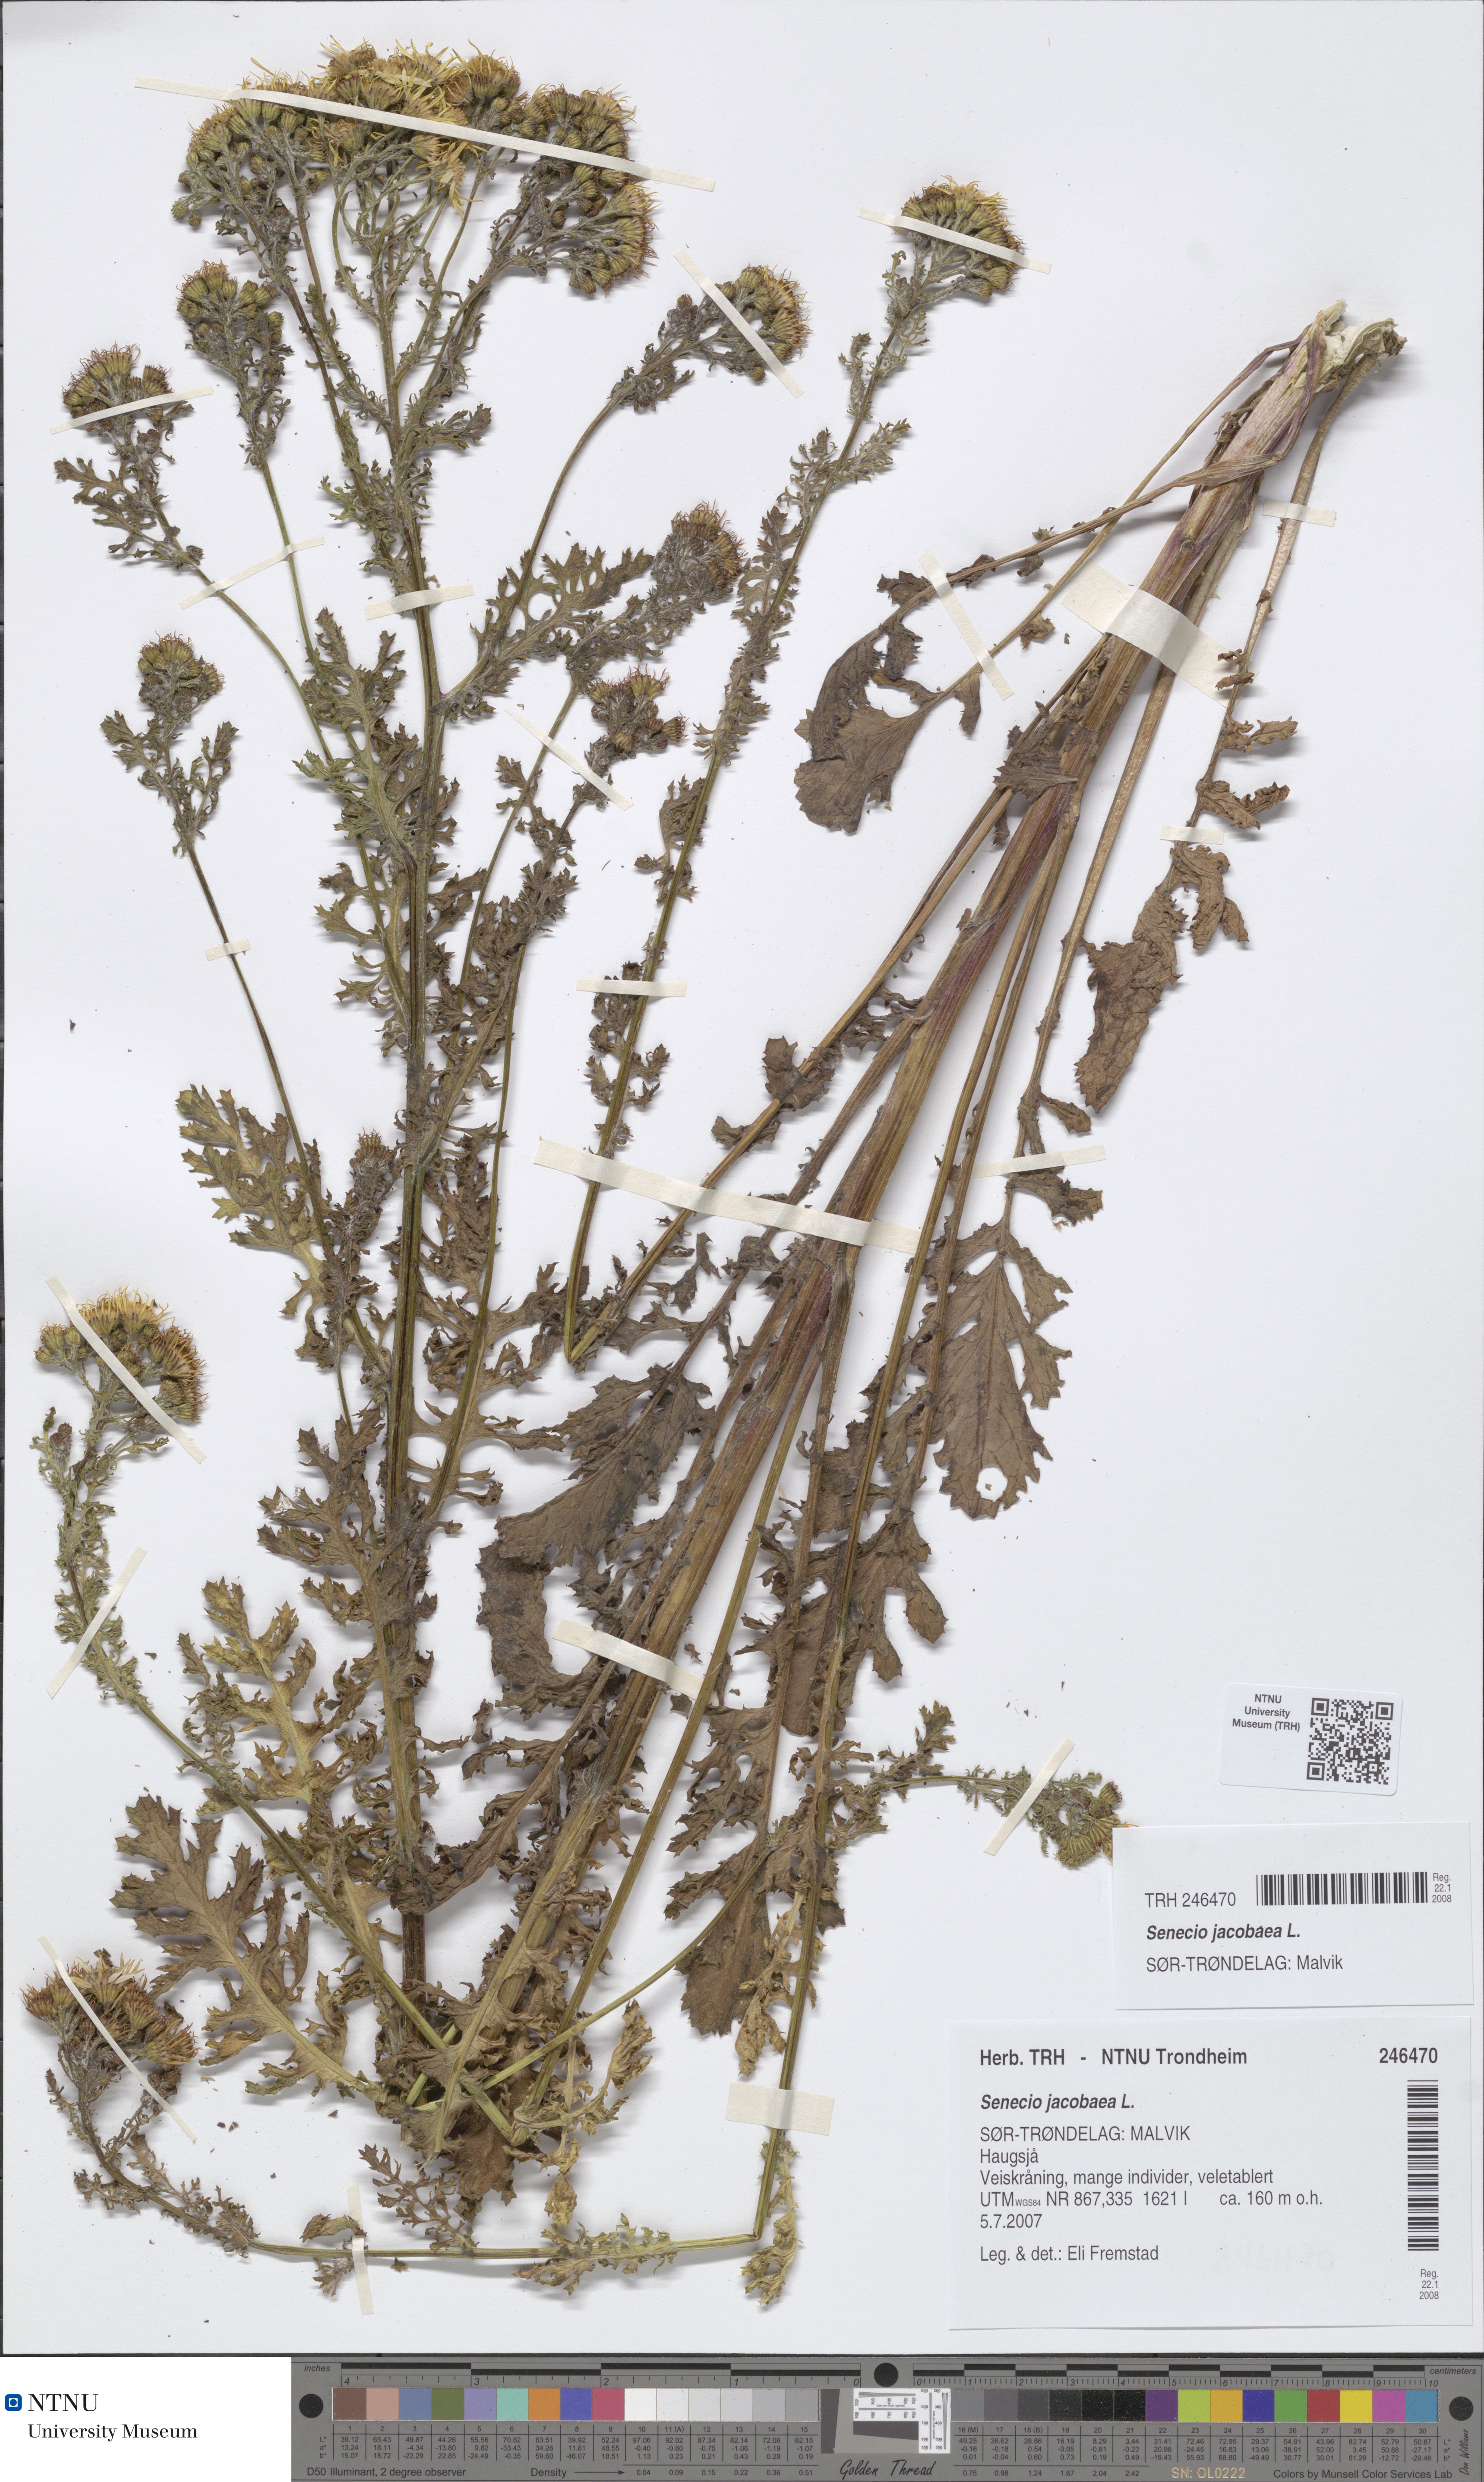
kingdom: Plantae
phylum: Tracheophyta
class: Magnoliopsida
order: Asterales
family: Asteraceae
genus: Jacobaea
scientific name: Jacobaea vulgaris
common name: Stinking willie
